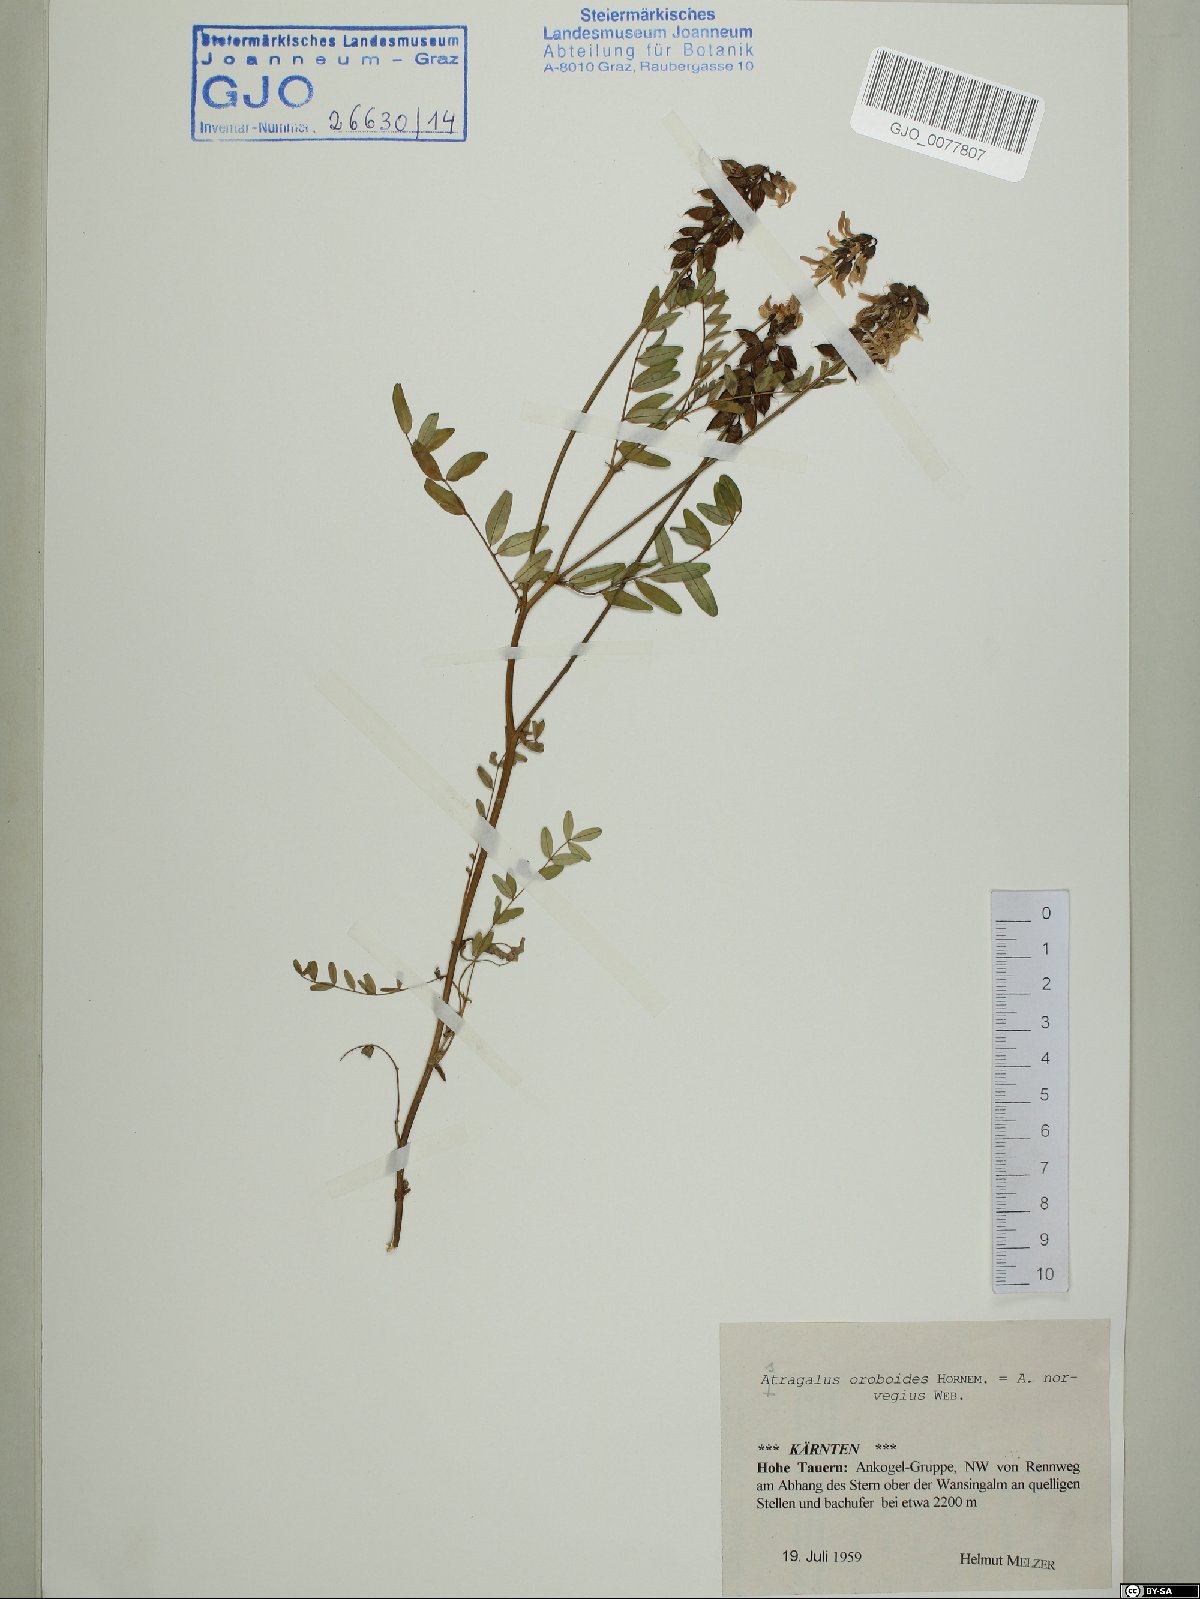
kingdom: Plantae
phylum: Tracheophyta
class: Magnoliopsida
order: Fabales
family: Fabaceae
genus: Astragalus
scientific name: Astragalus norvegicus
